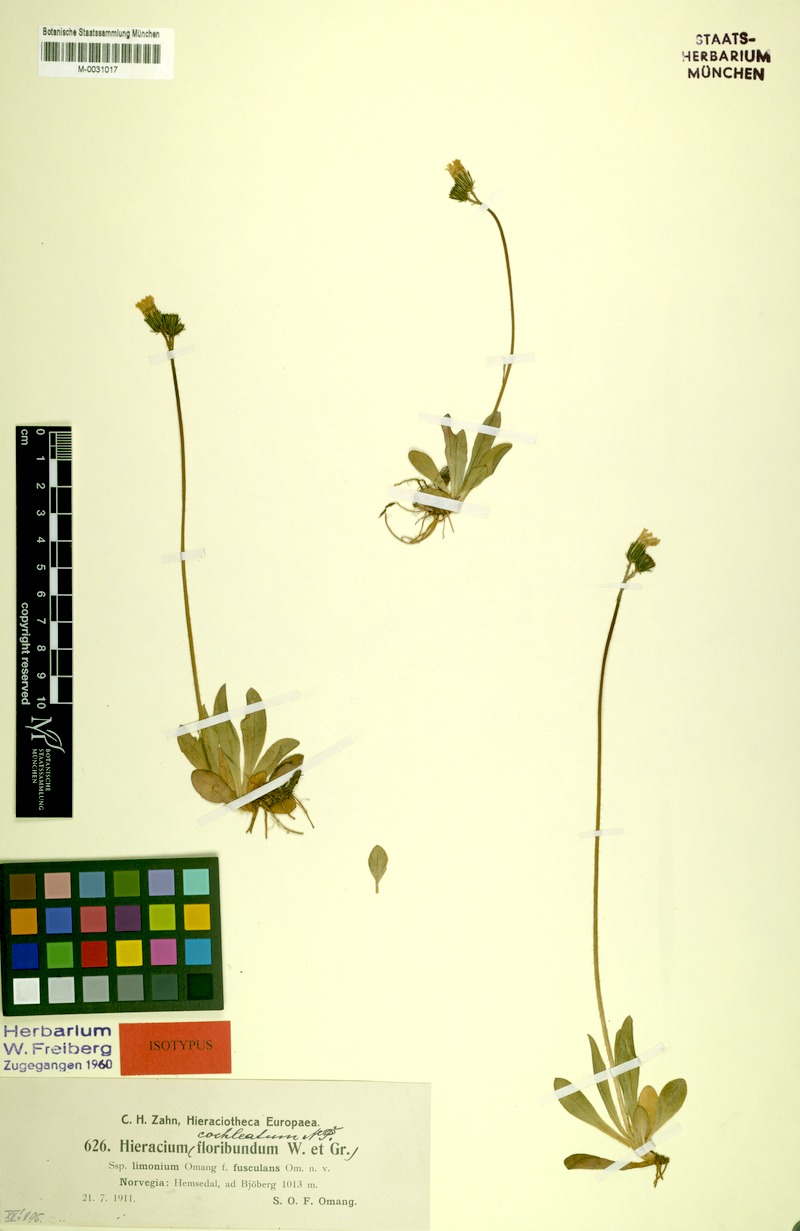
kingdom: Plantae
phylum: Tracheophyta
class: Magnoliopsida
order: Asterales
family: Asteraceae
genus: Pilosella
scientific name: Pilosella cochlearis
